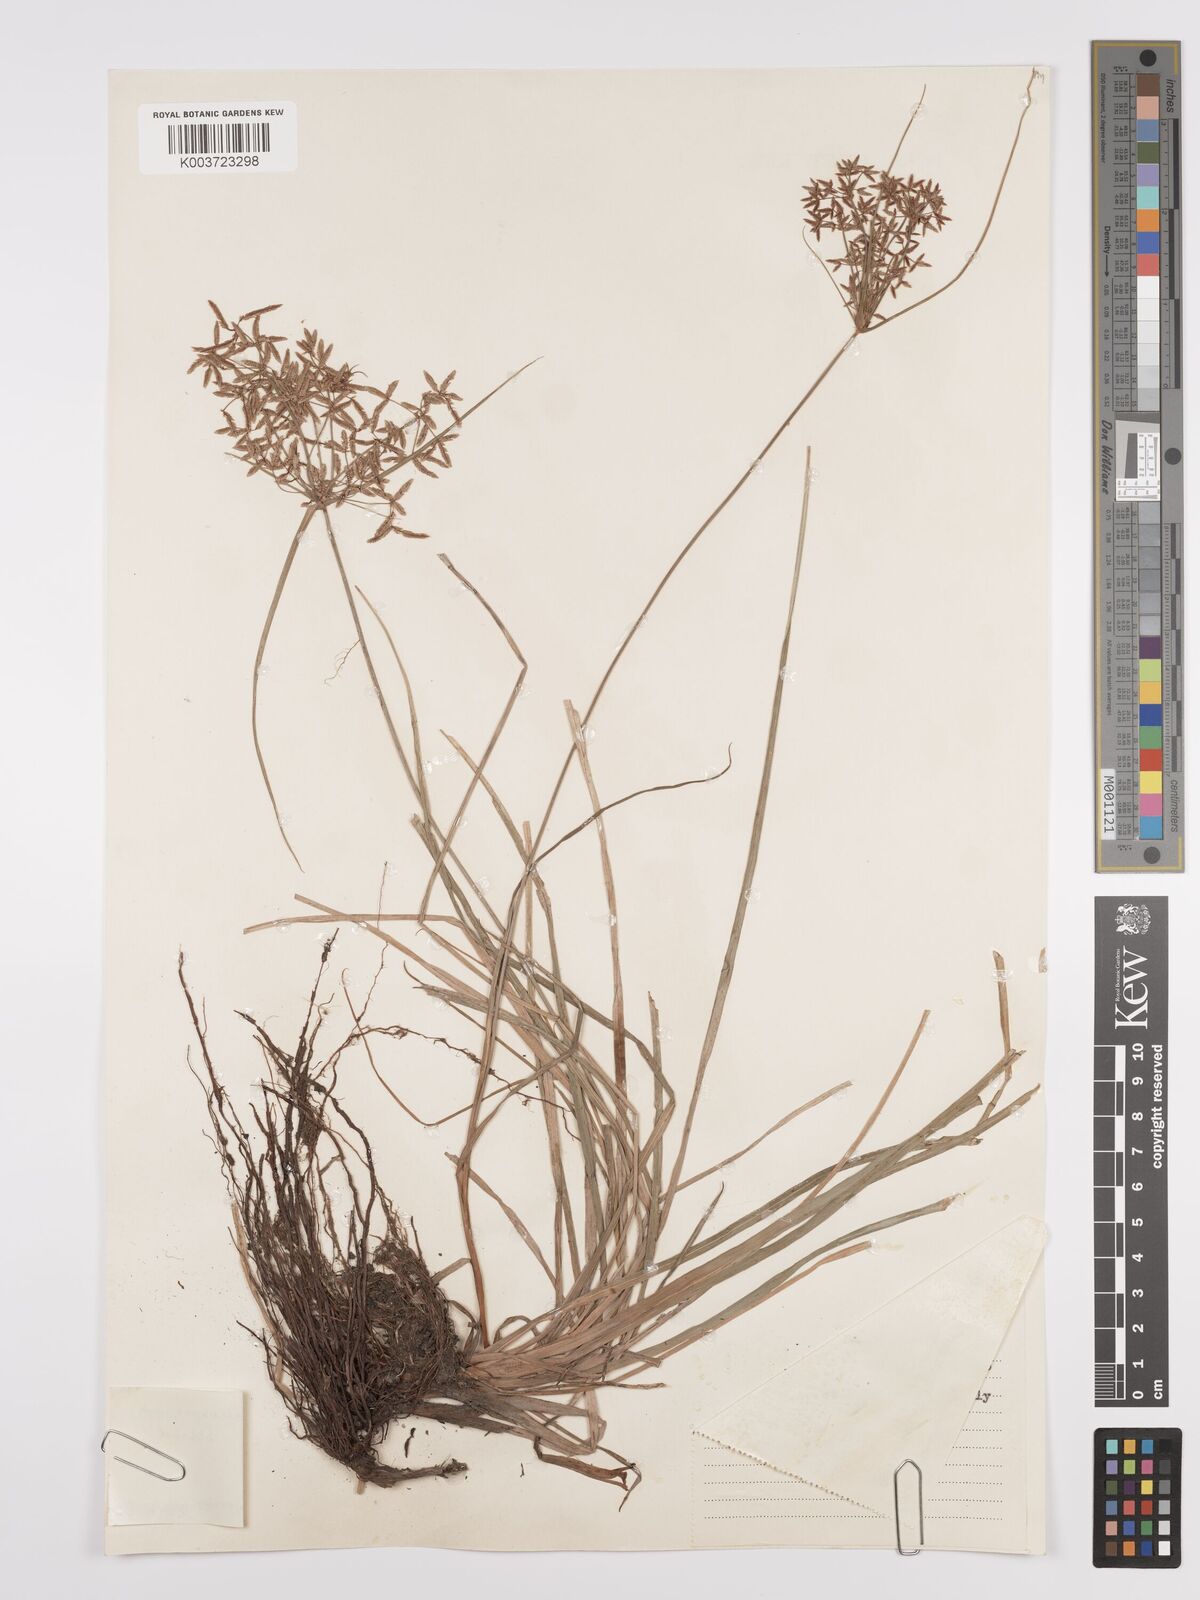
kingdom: Plantae
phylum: Tracheophyta
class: Liliopsida
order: Poales
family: Cyperaceae
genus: Cyperus
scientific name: Cyperus denudatus
